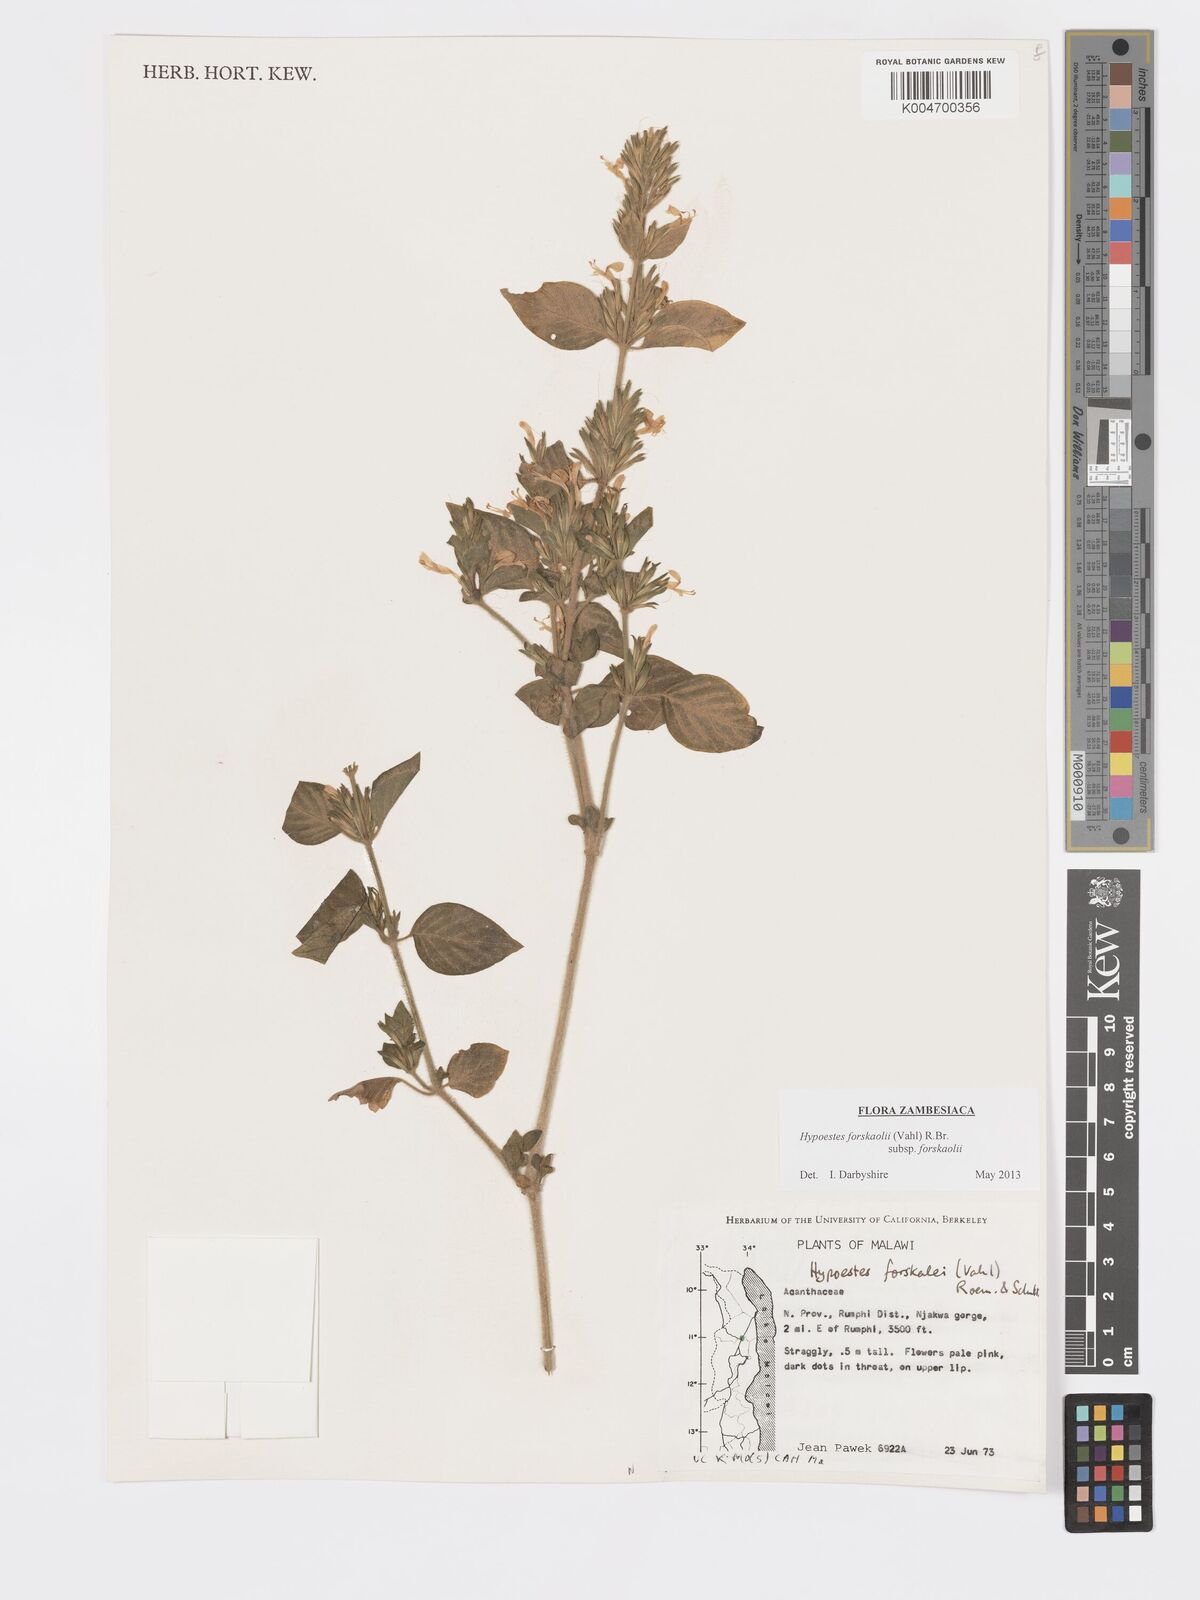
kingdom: Plantae
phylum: Tracheophyta
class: Magnoliopsida
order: Lamiales
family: Acanthaceae
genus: Hypoestes
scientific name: Hypoestes forskaolii
